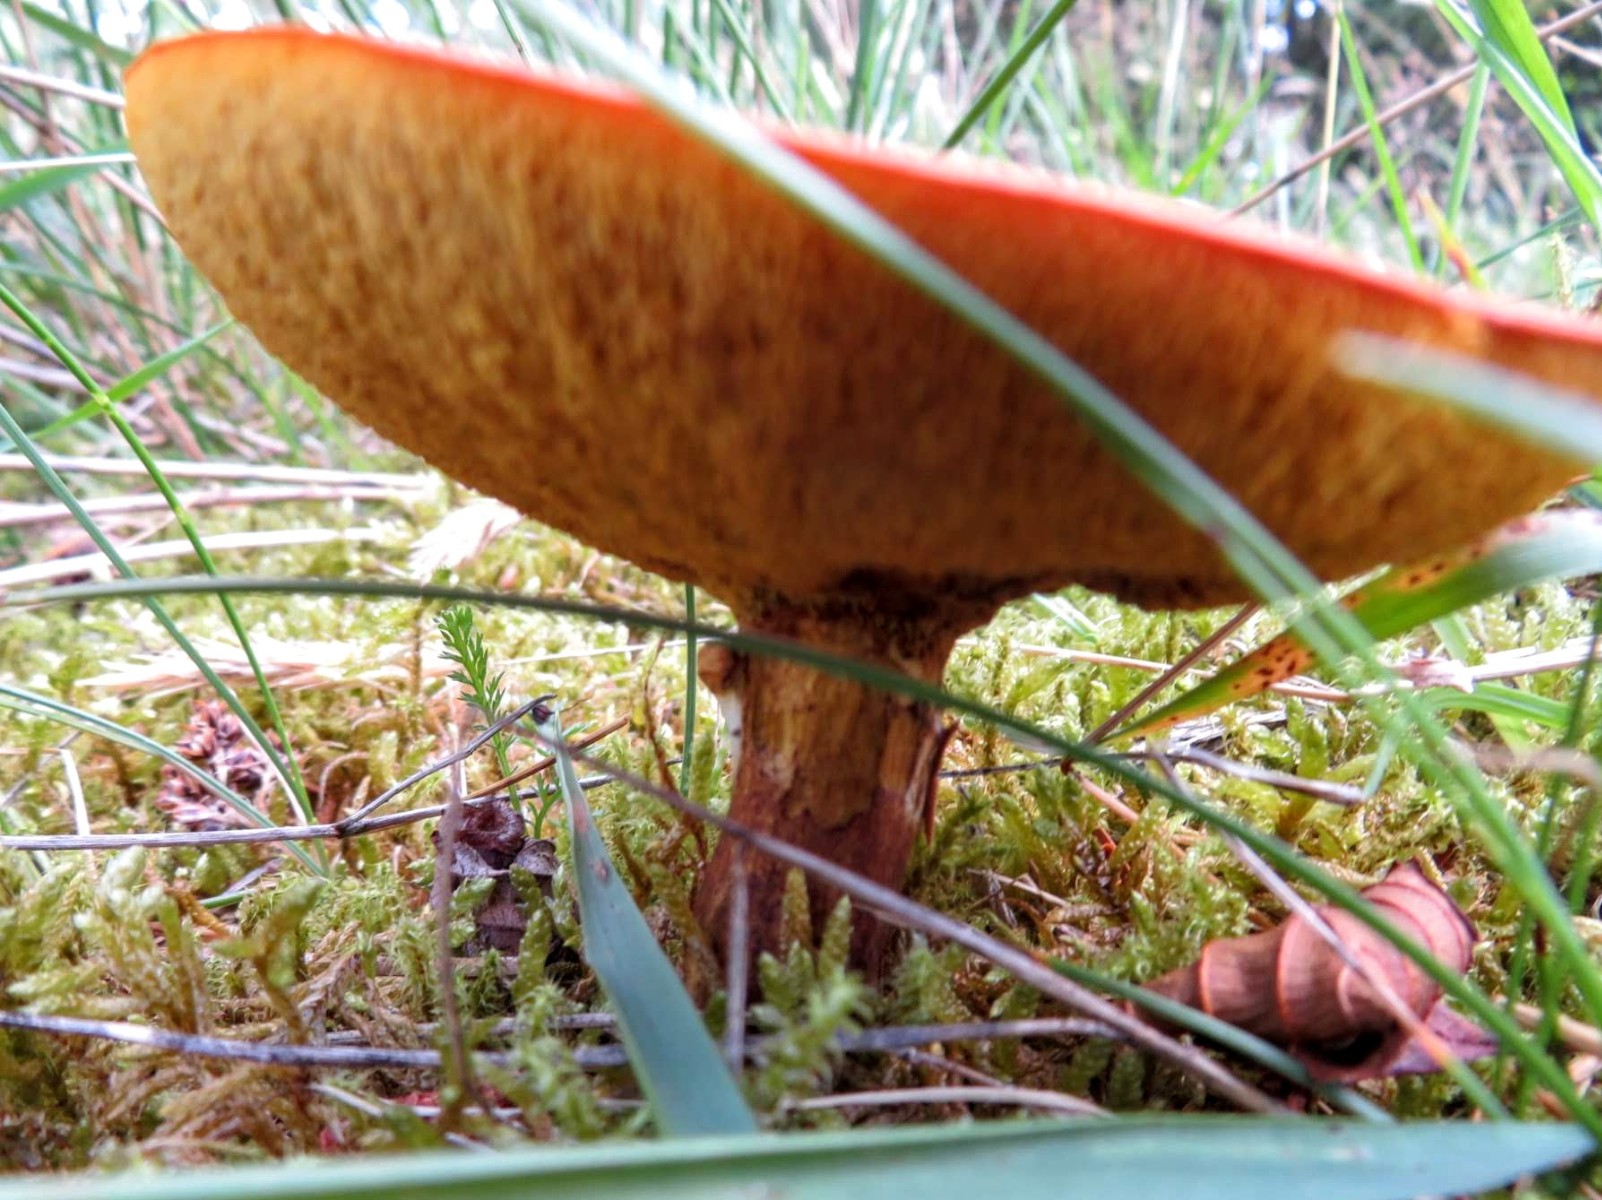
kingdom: Fungi
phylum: Basidiomycota
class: Agaricomycetes
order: Boletales
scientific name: Boletales
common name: rørhatordenen
